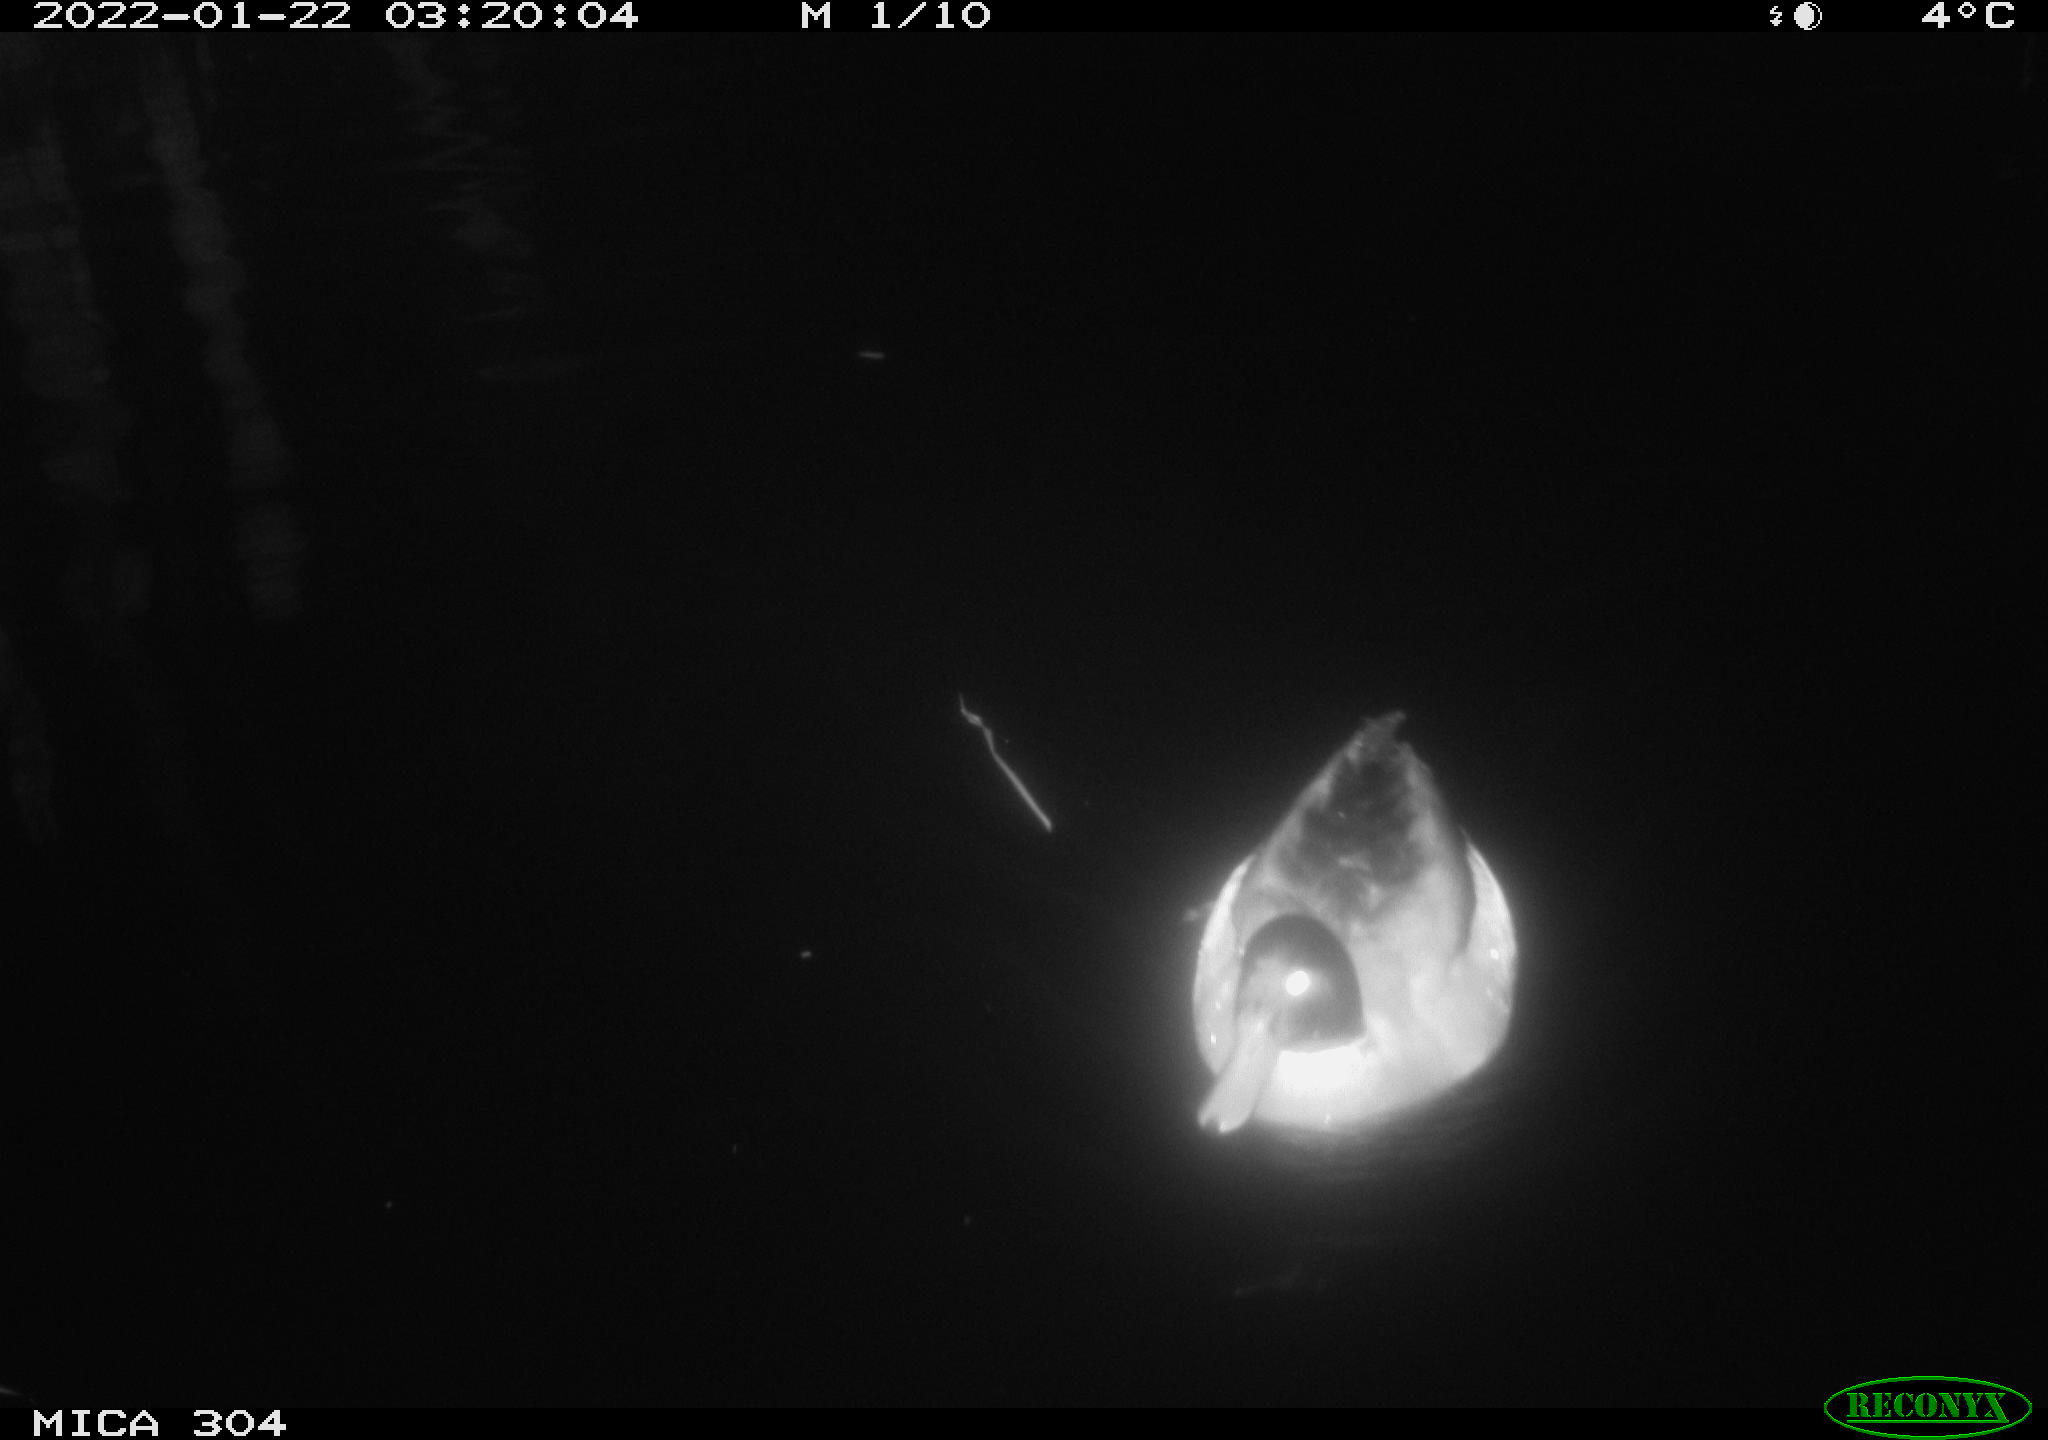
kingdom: Animalia
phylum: Chordata
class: Aves
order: Anseriformes
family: Anatidae
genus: Anas
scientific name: Anas
